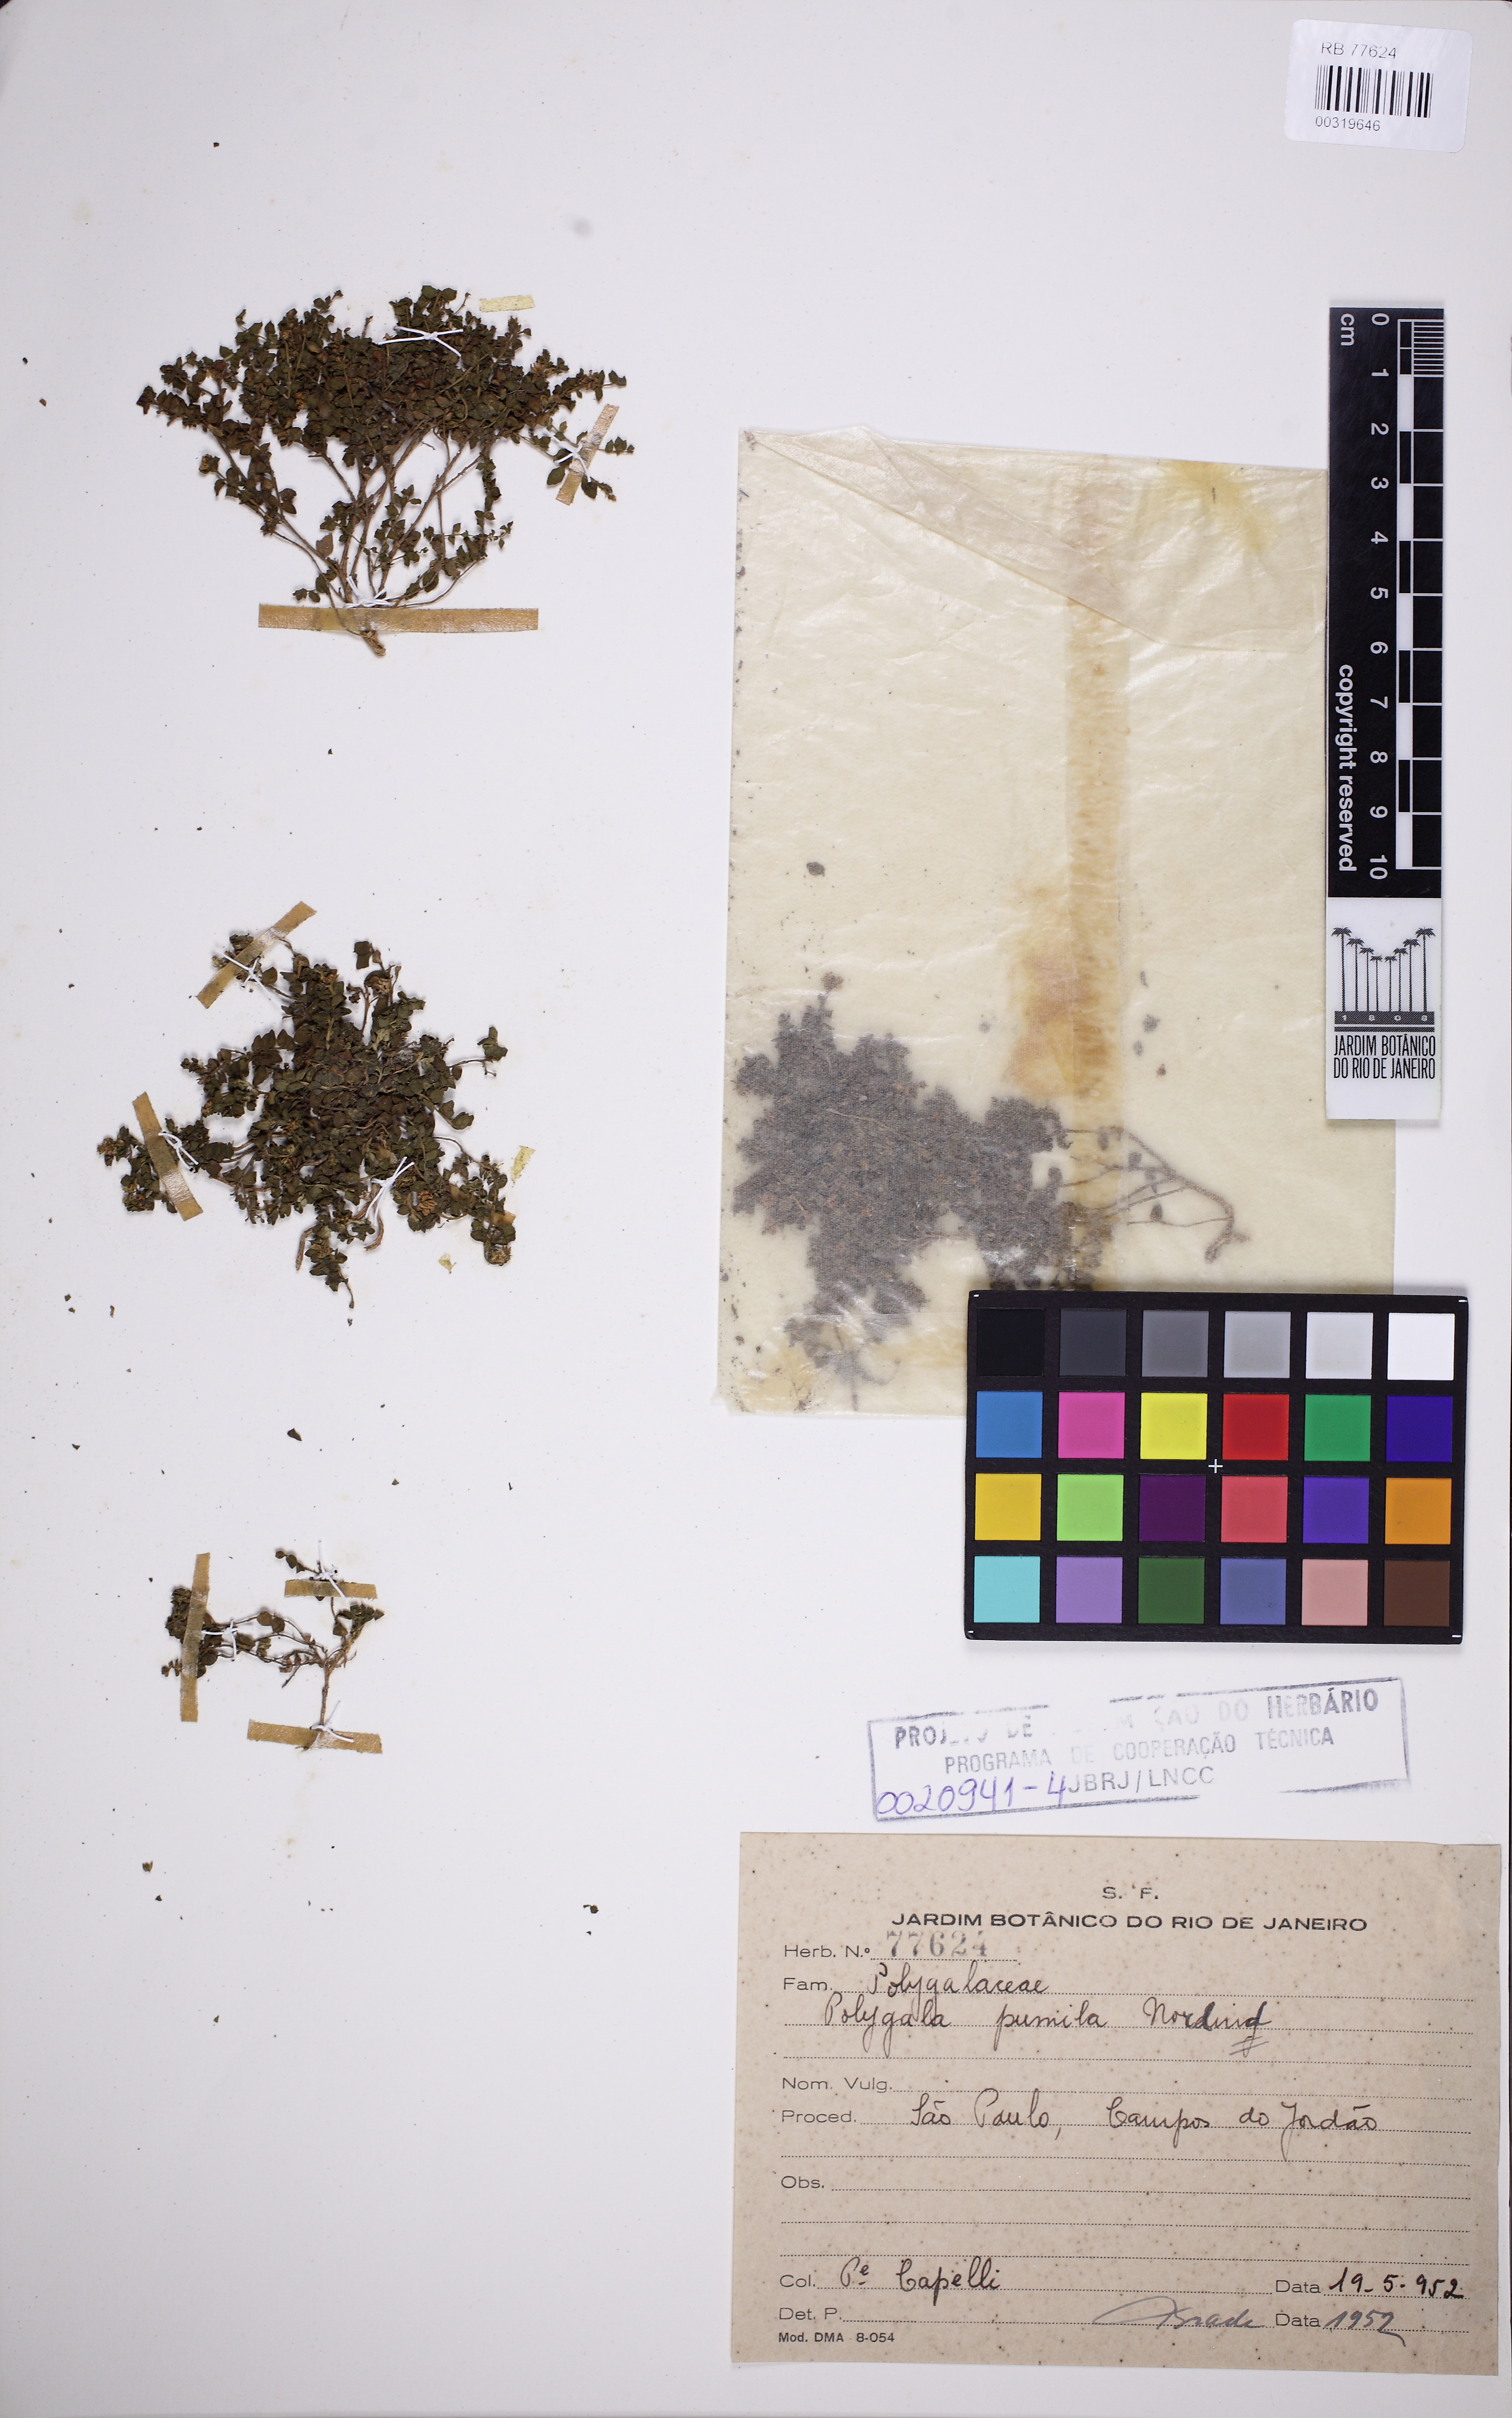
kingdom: Plantae
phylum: Tracheophyta
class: Magnoliopsida
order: Fabales
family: Polygalaceae
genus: Polygala
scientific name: Polygala pumila
